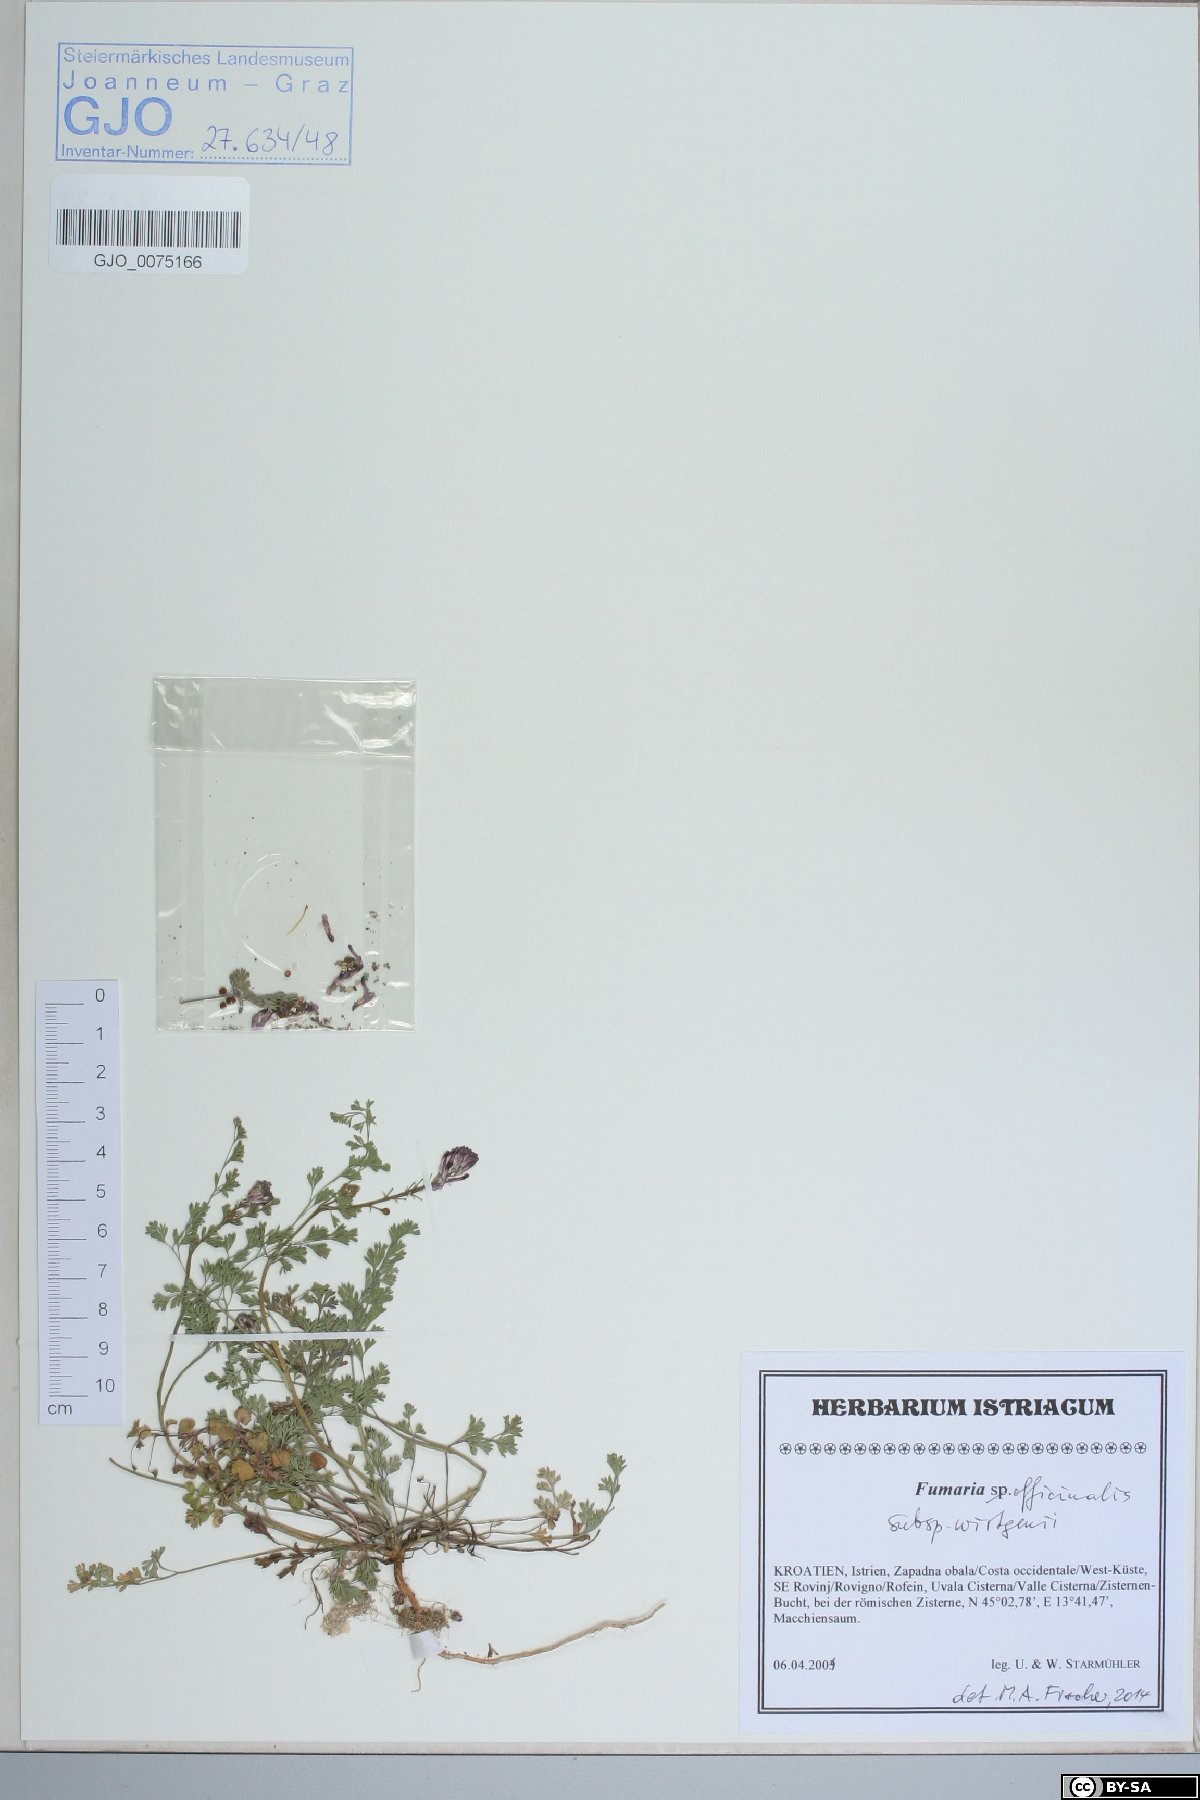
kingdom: Plantae
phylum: Tracheophyta
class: Magnoliopsida
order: Ranunculales
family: Papaveraceae
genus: Fumaria
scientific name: Fumaria wirtgenii
